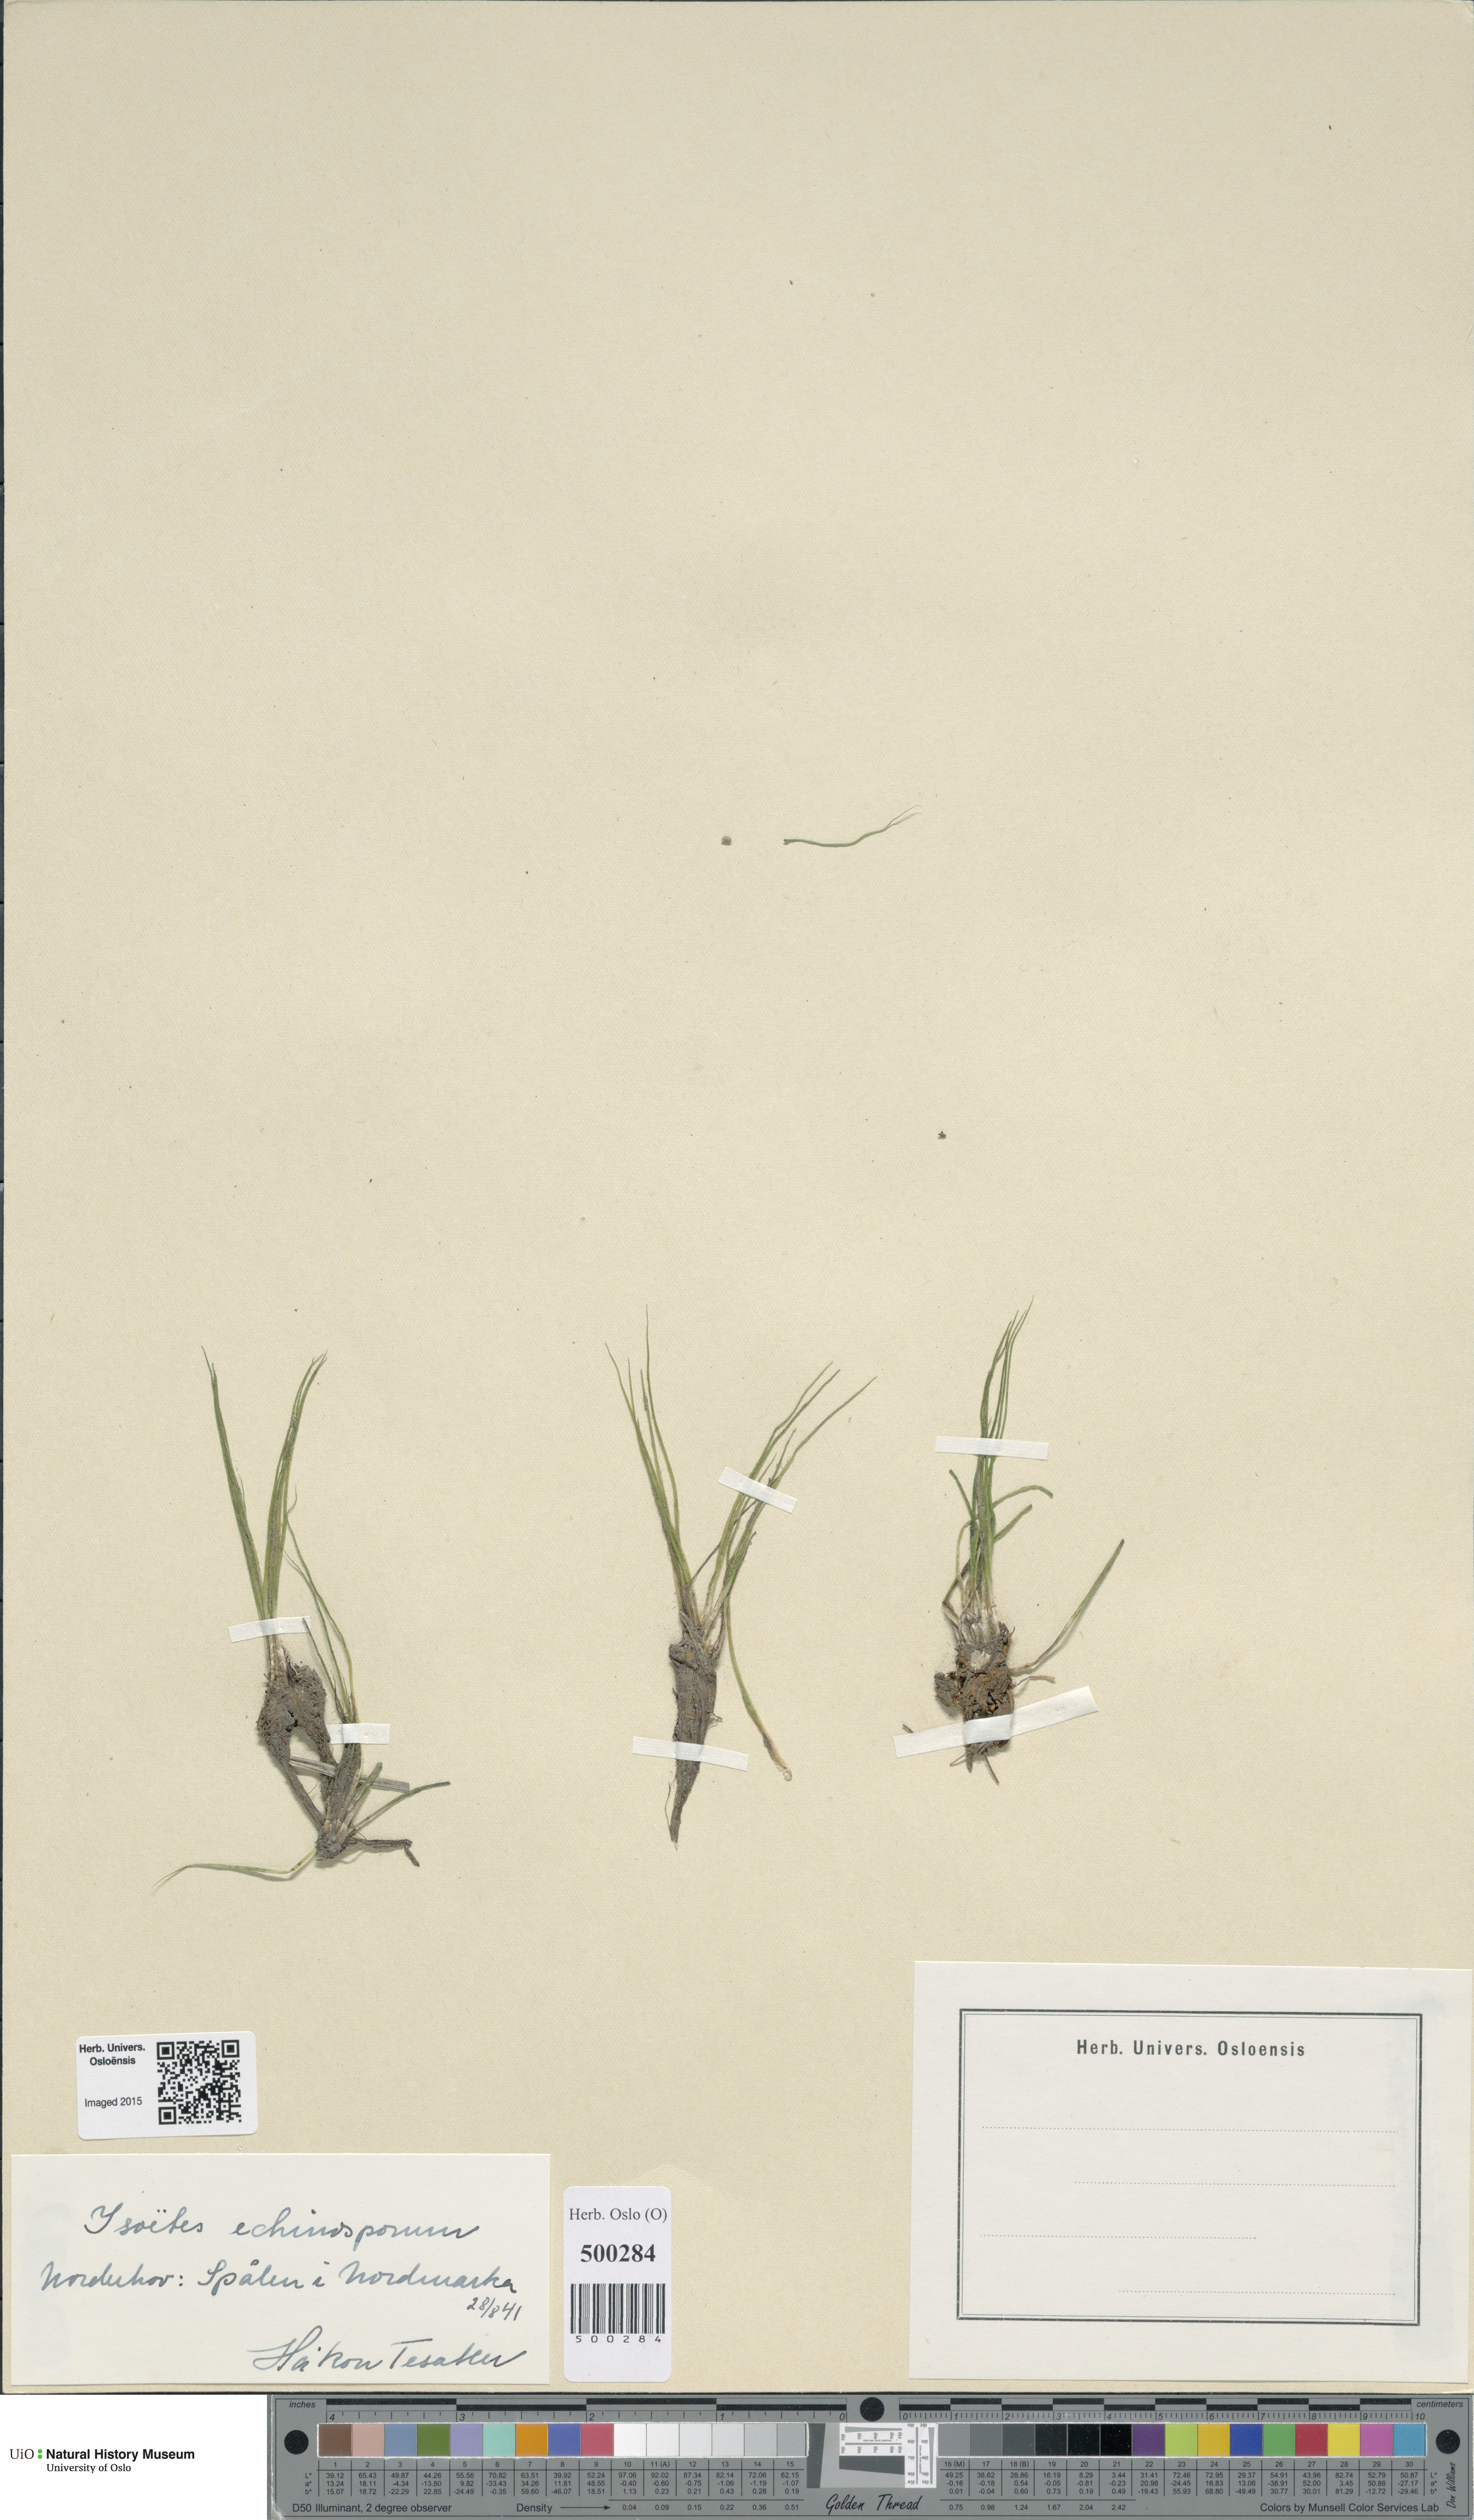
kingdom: Plantae
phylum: Tracheophyta
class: Lycopodiopsida
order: Isoetales
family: Isoetaceae
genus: Isoetes
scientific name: Isoetes echinospora
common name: Spring quillwort
